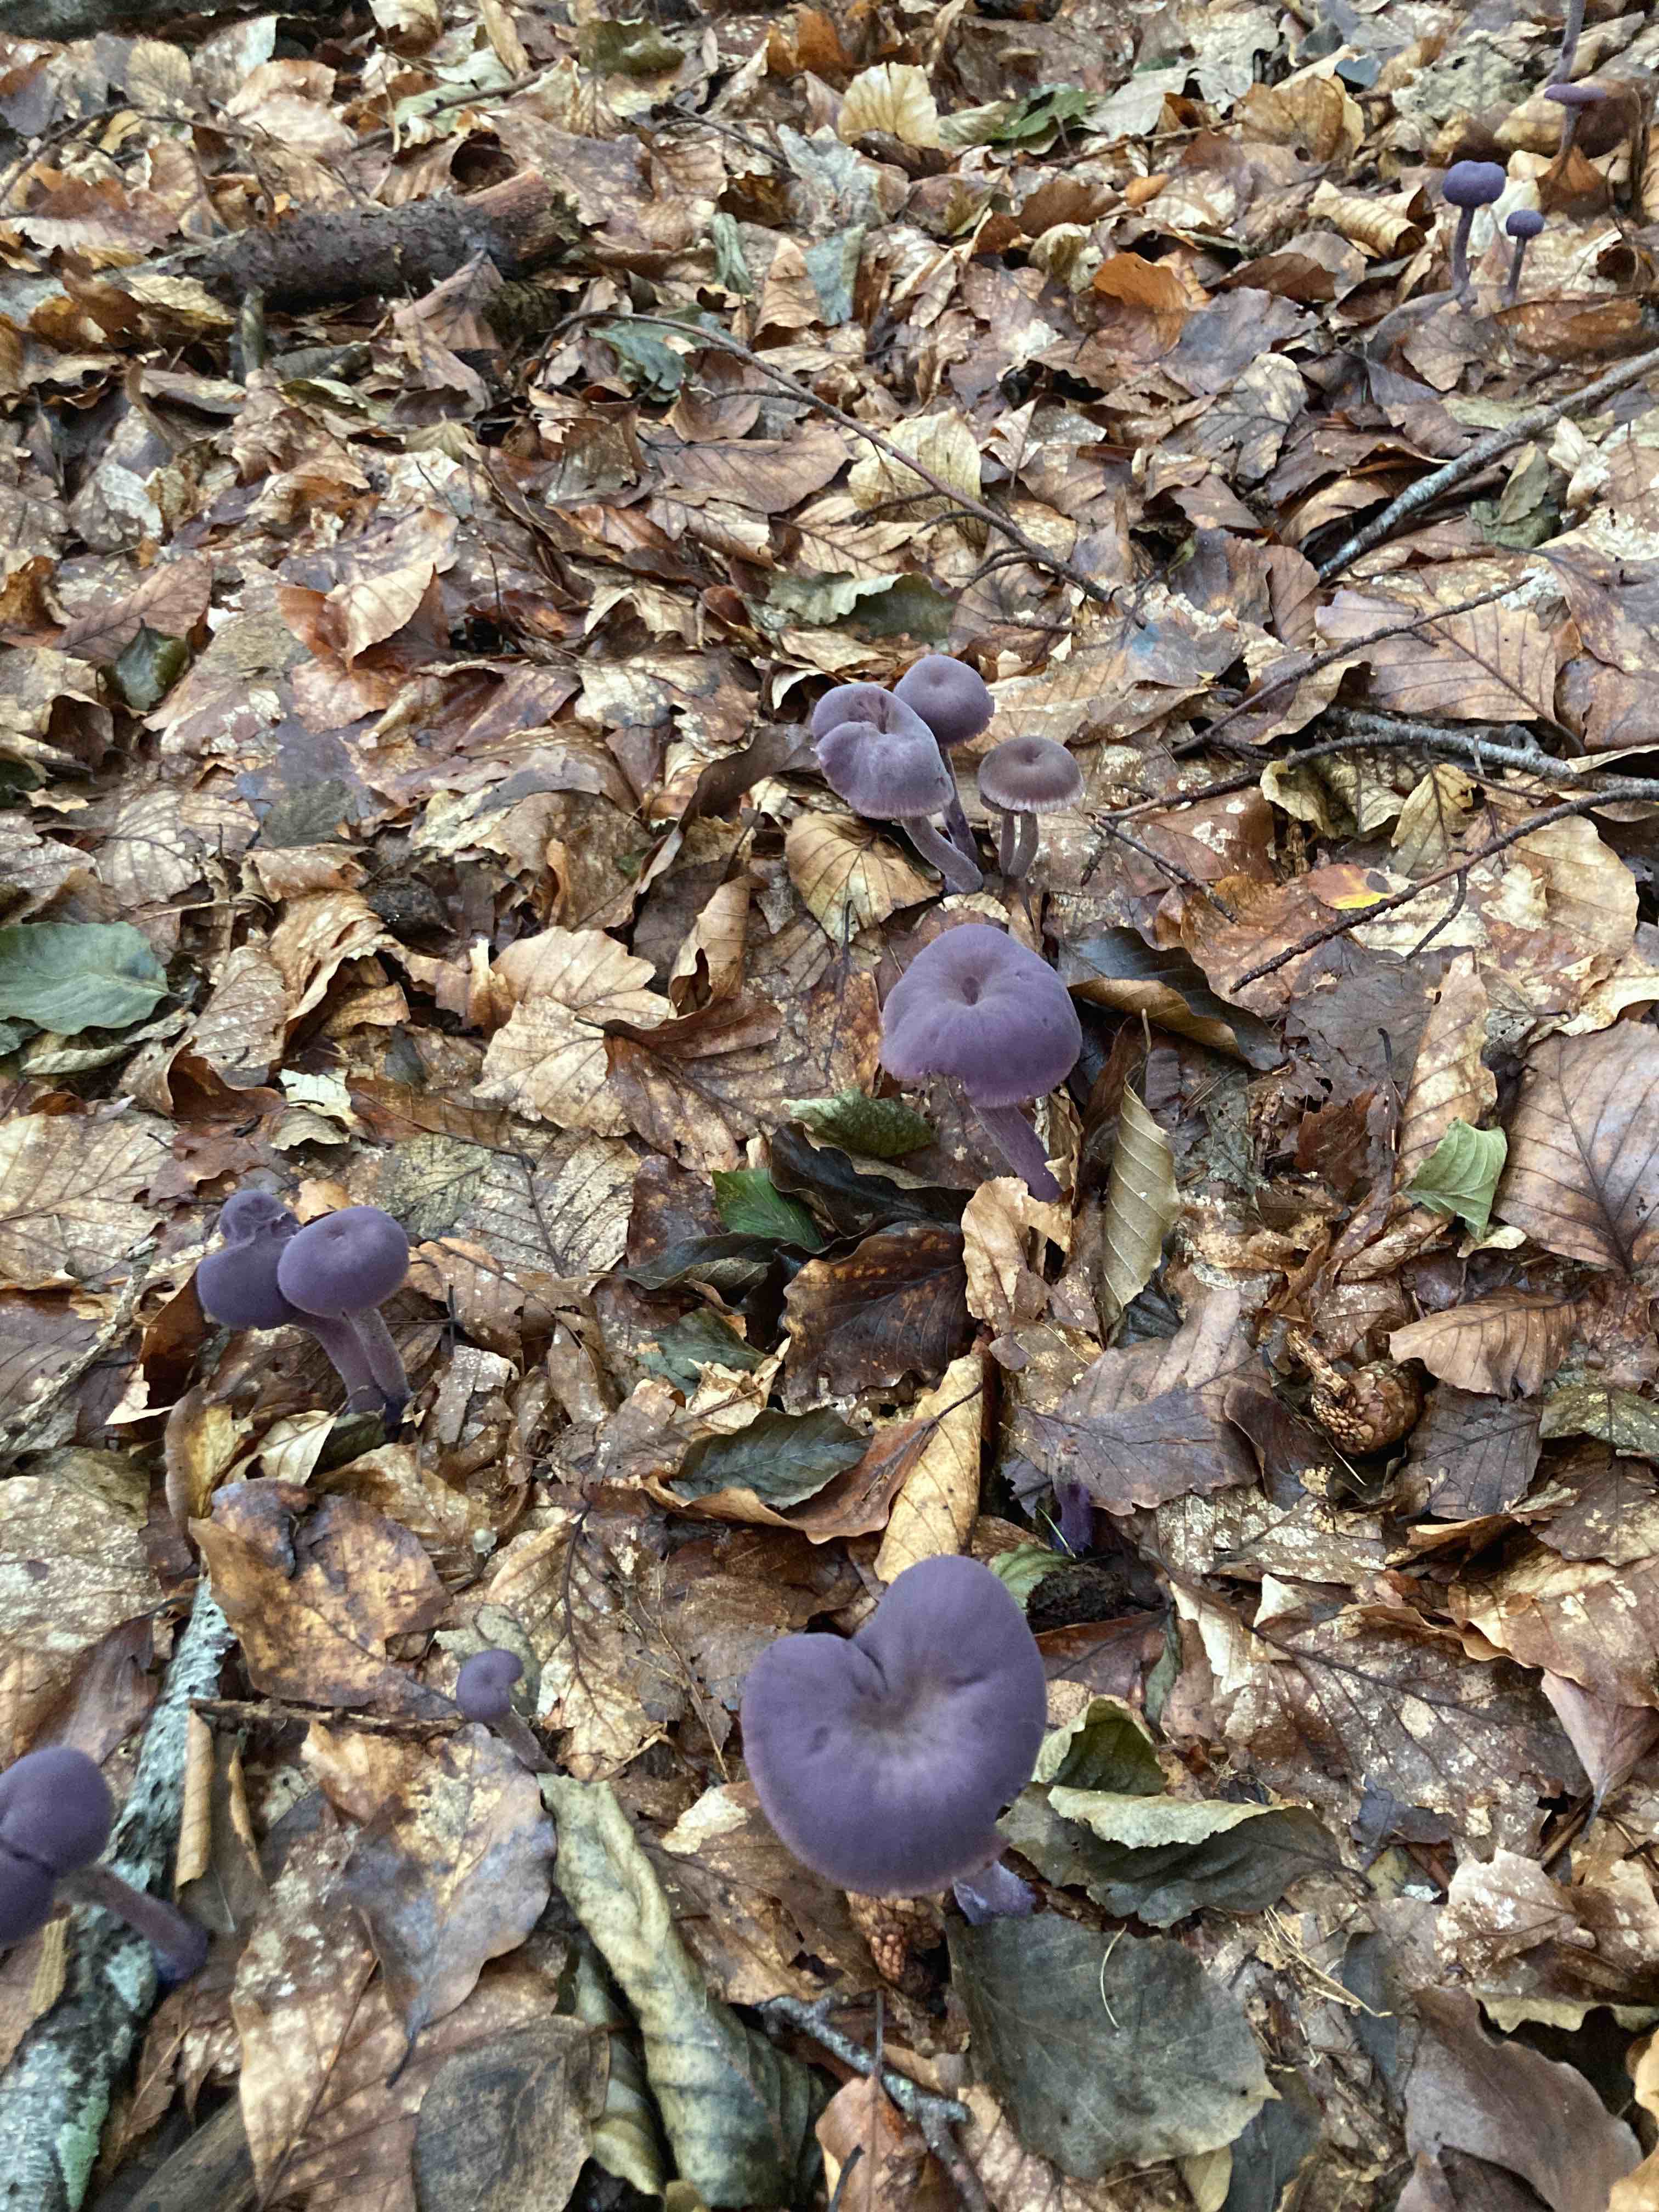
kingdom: Fungi
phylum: Basidiomycota
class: Agaricomycetes
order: Agaricales
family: Hydnangiaceae
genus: Laccaria
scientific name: Laccaria amethystina
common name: violet ametysthat
